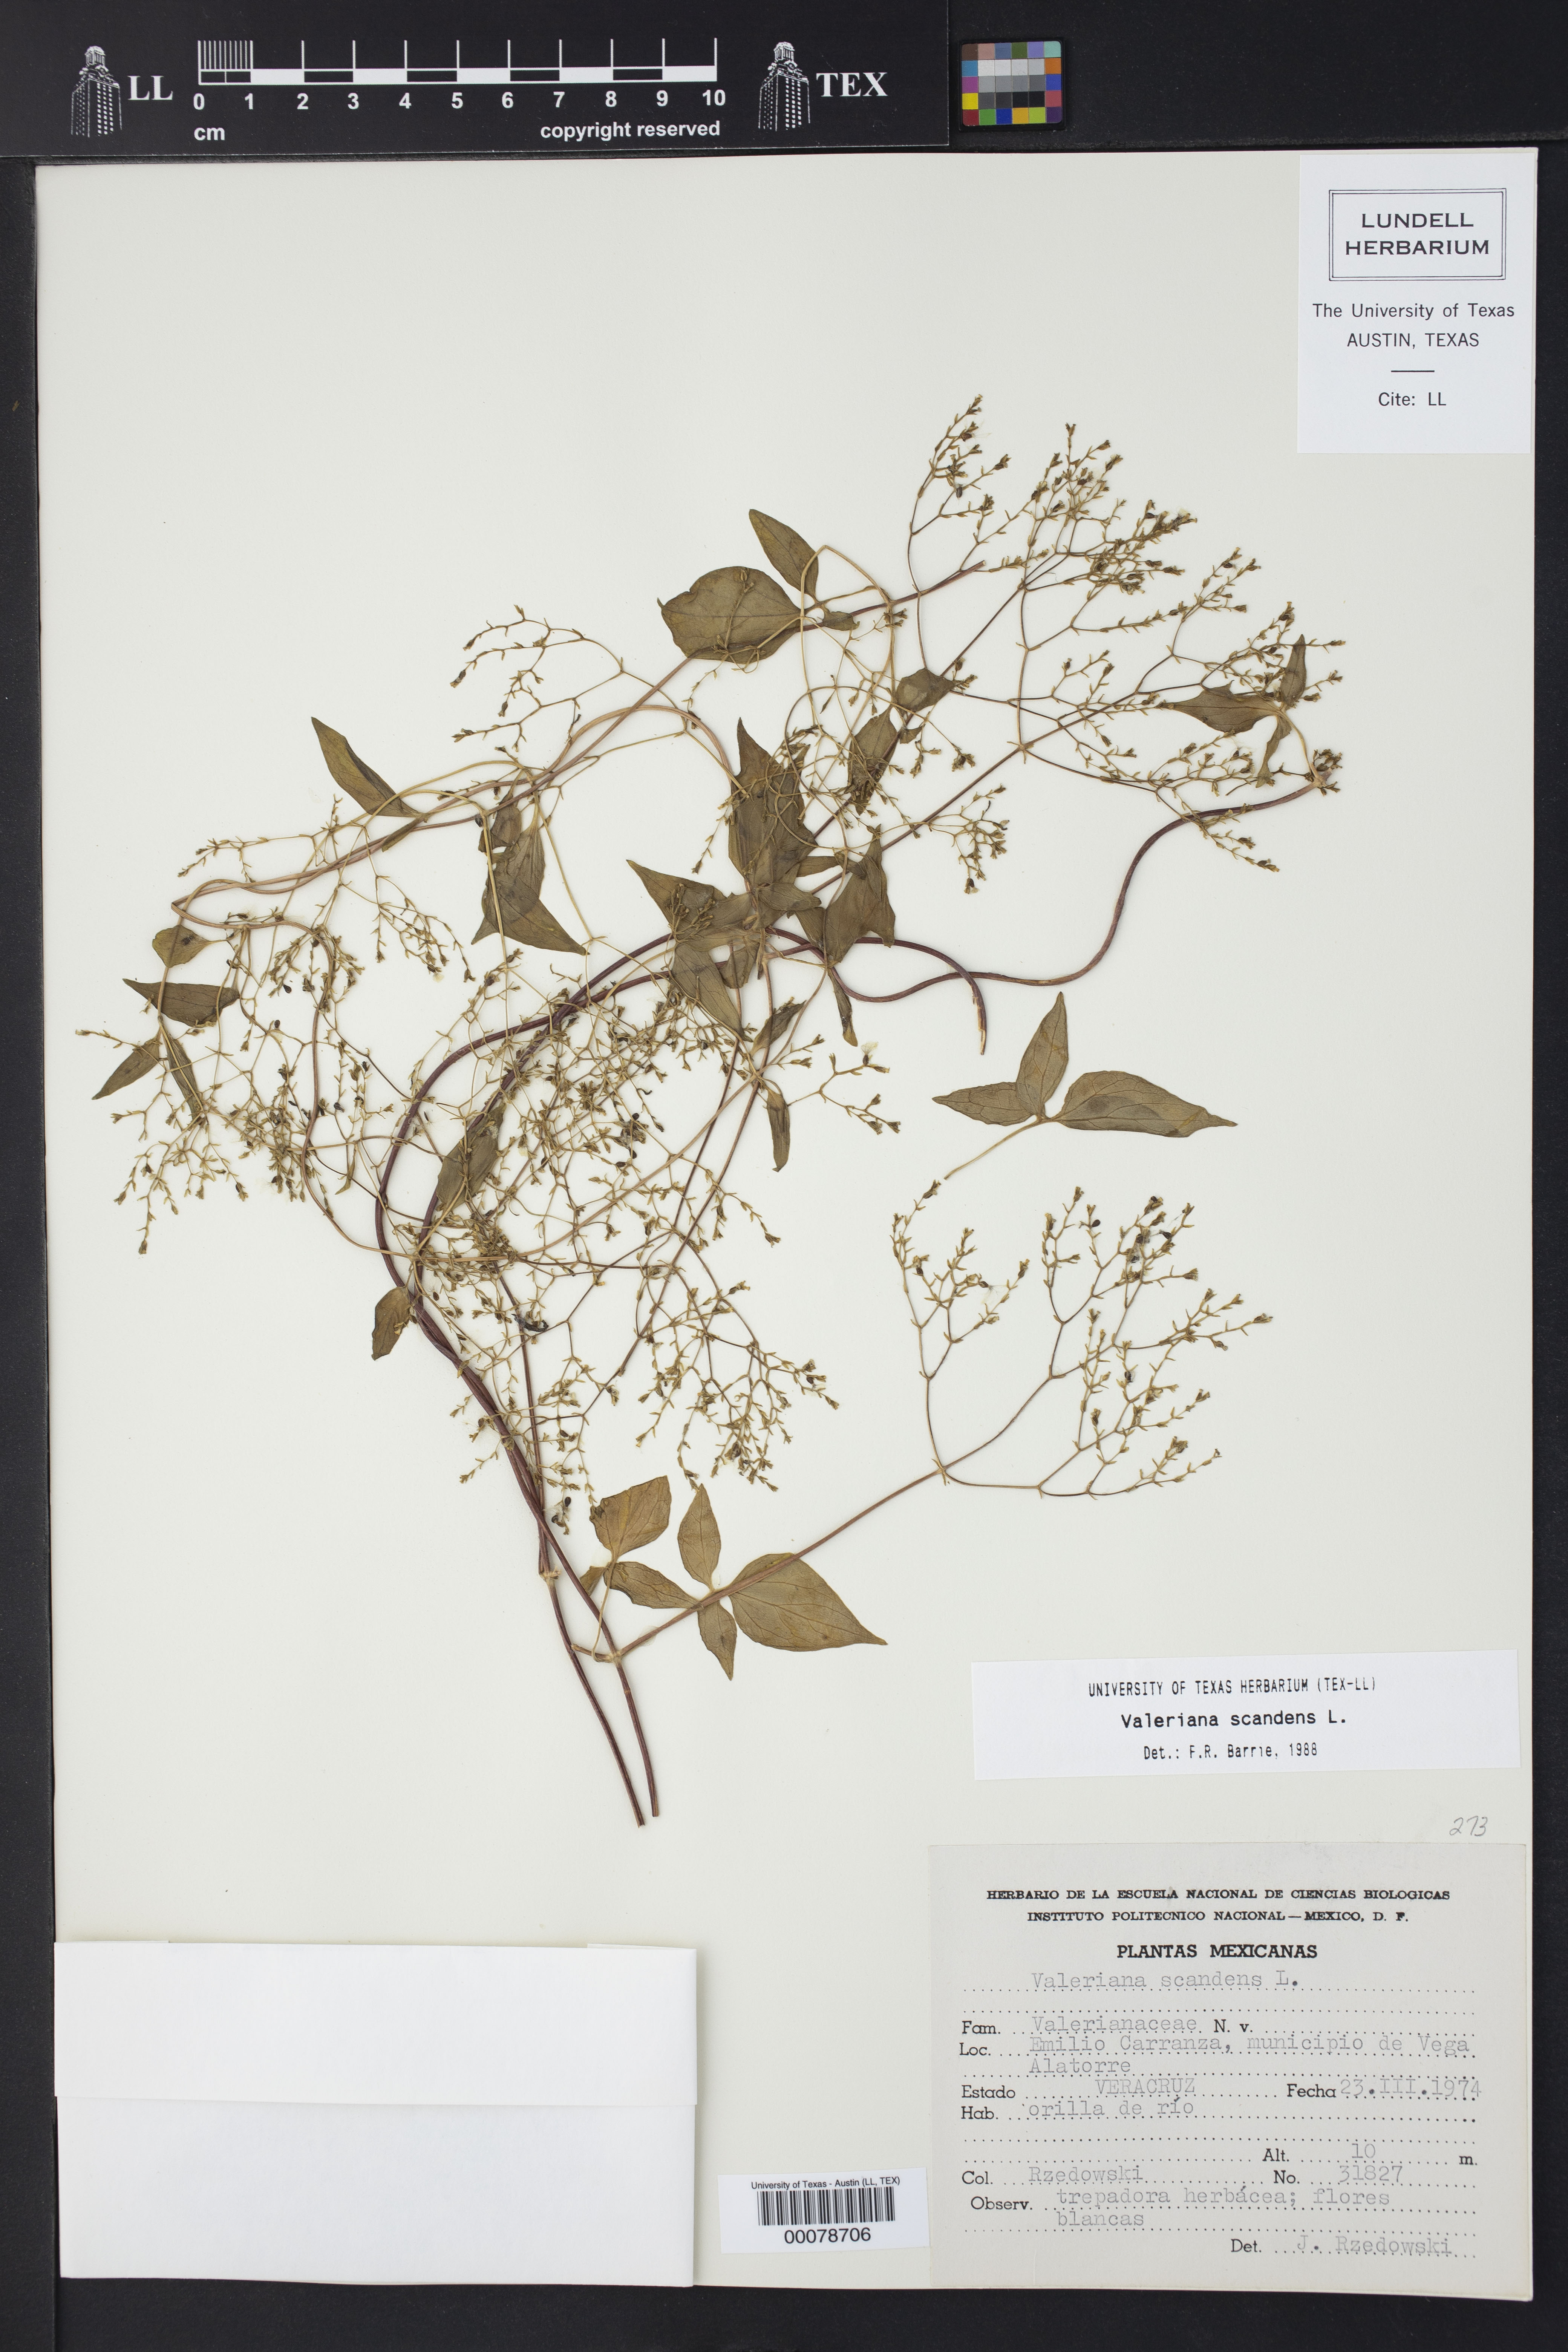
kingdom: Plantae
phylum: Tracheophyta
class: Magnoliopsida
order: Dipsacales
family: Caprifoliaceae
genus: Valeriana
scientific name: Valeriana scandens
